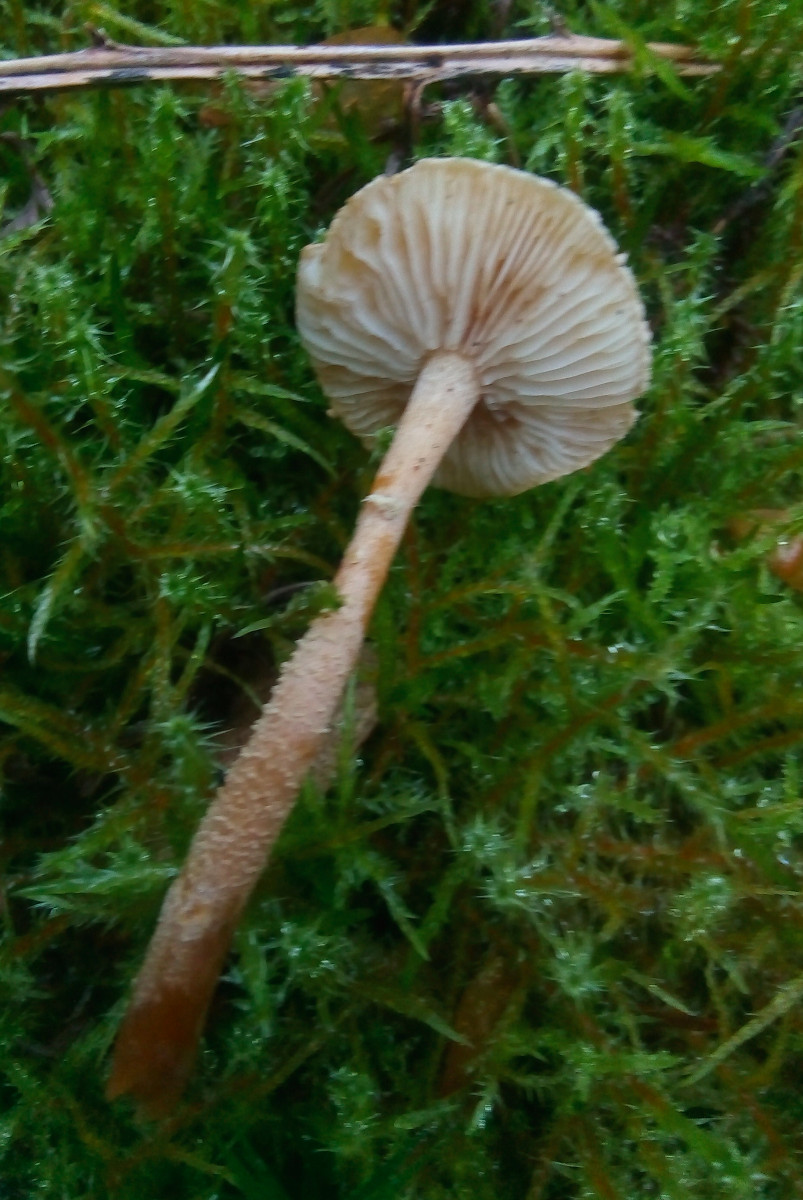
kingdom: Fungi
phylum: Basidiomycota
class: Agaricomycetes
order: Agaricales
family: Tricholomataceae
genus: Cystoderma
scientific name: Cystoderma amianthinum
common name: okkergul grynhat
